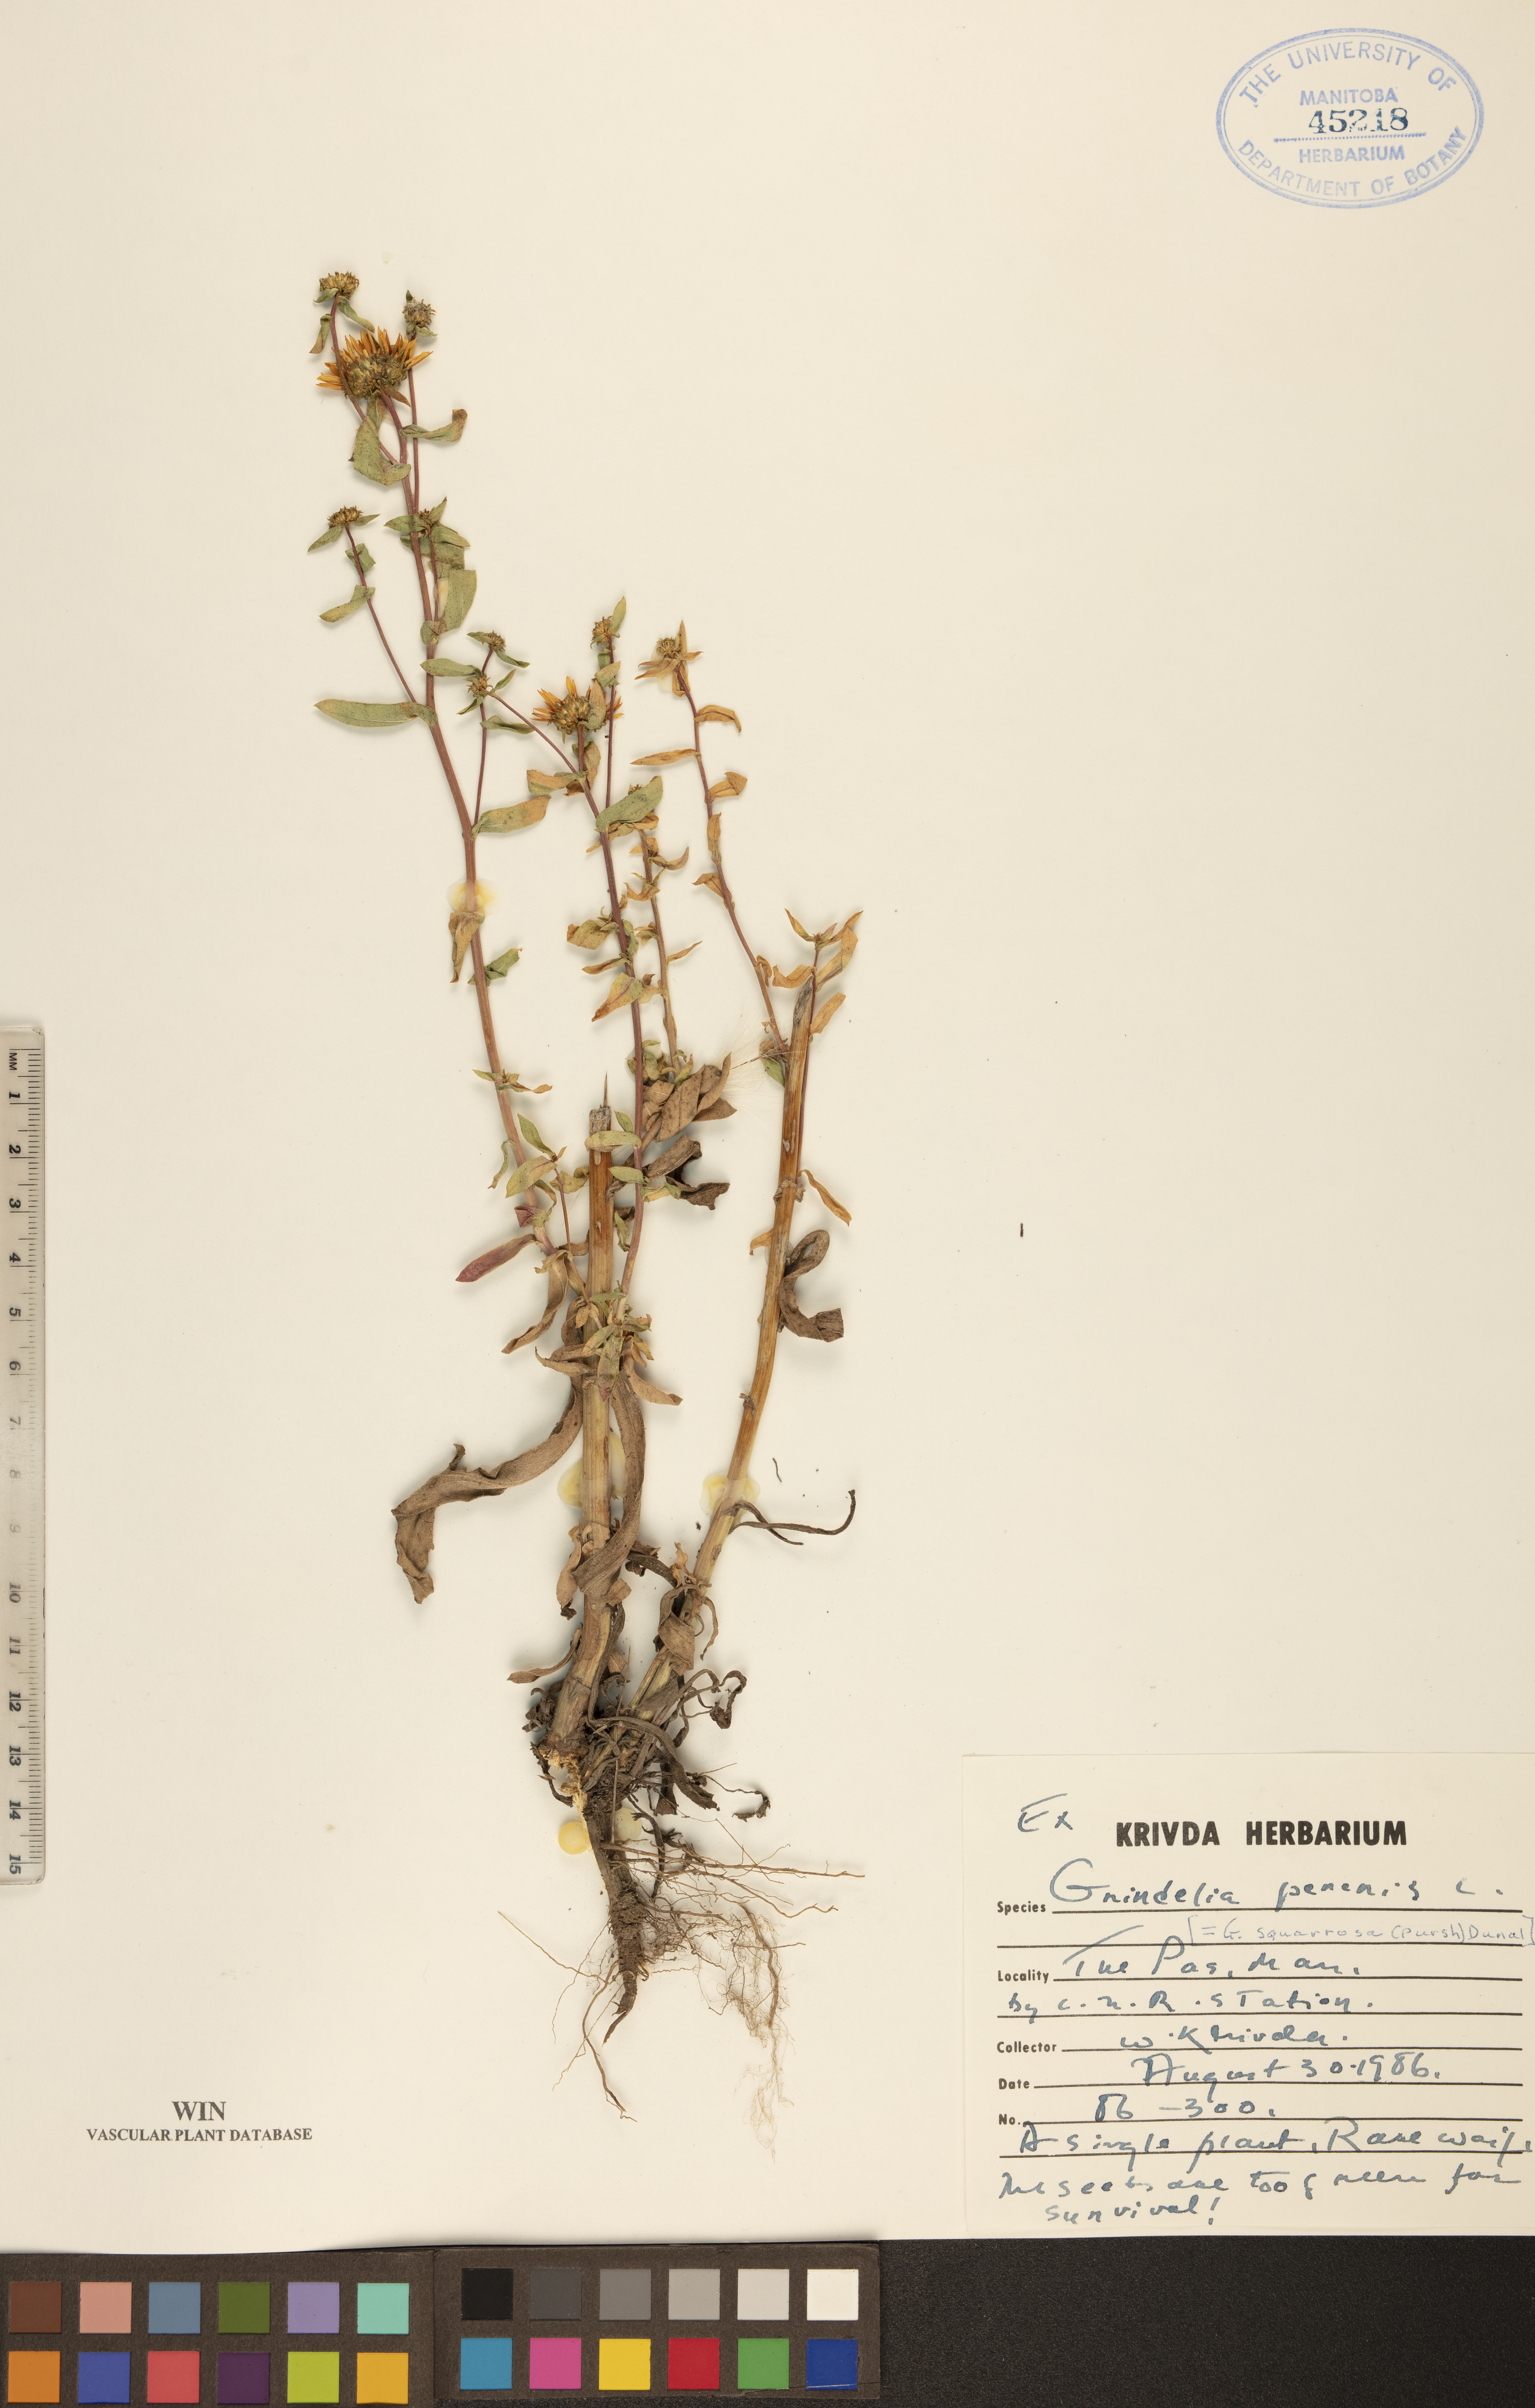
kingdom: Plantae
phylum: Tracheophyta
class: Magnoliopsida
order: Asterales
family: Asteraceae
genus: Grindelia
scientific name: Grindelia hirsutula
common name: Hairy gumweed
